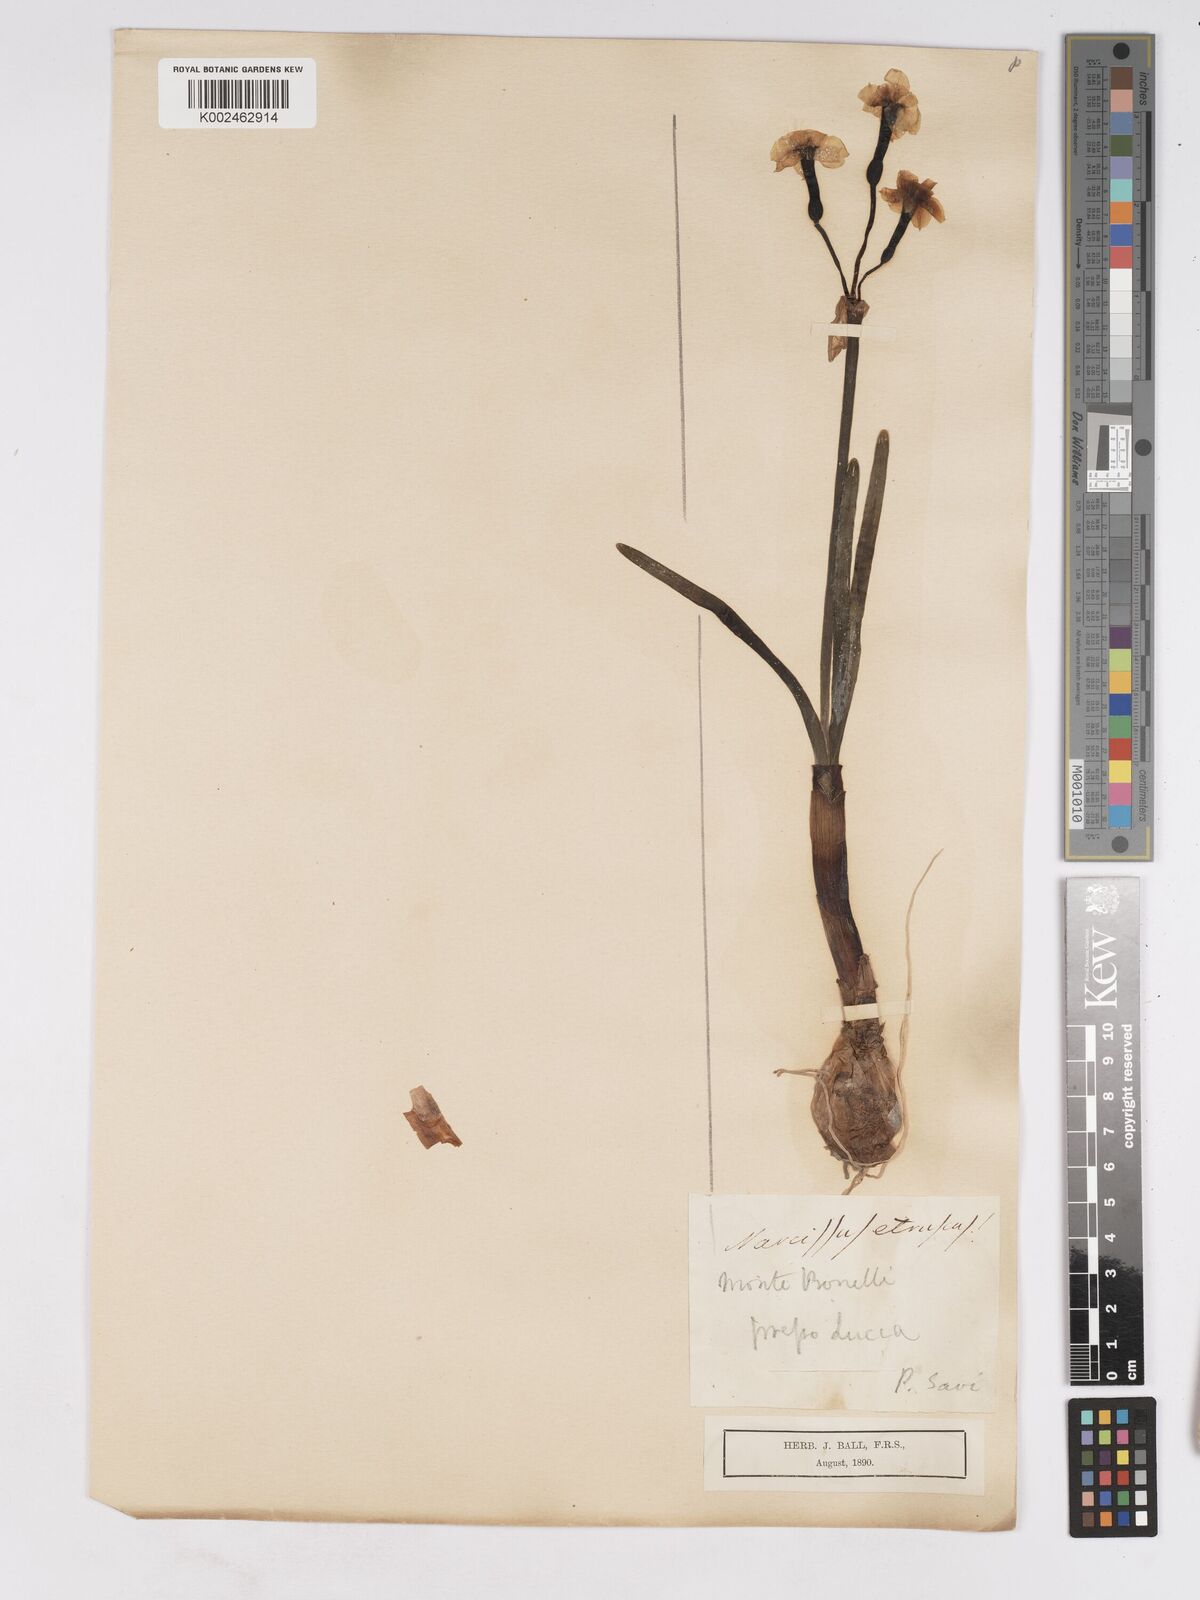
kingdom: Plantae
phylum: Tracheophyta
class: Liliopsida
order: Asparagales
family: Amaryllidaceae
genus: Narcissus
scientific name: Narcissus tazetta
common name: Bunch-flowered daffodil
